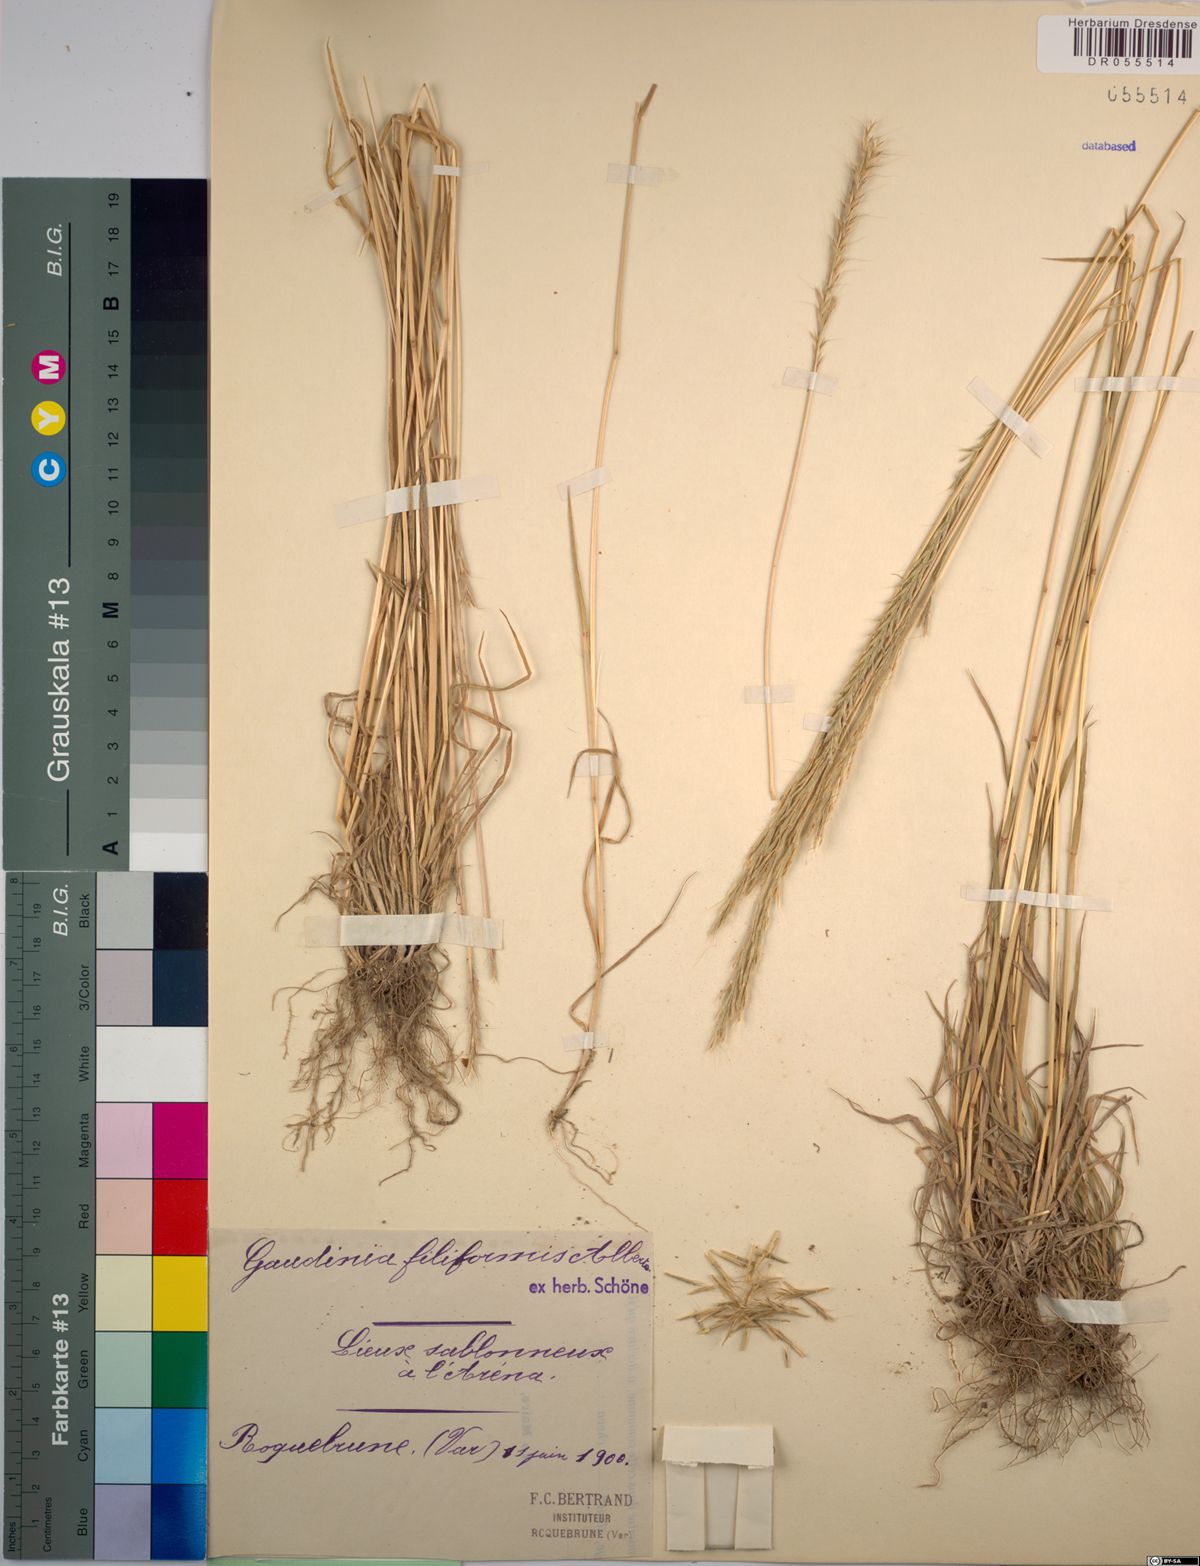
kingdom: Plantae
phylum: Tracheophyta
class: Liliopsida
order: Poales
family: Poaceae
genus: Gaudinia
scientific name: Gaudinia fragilis
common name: French oat-grass
